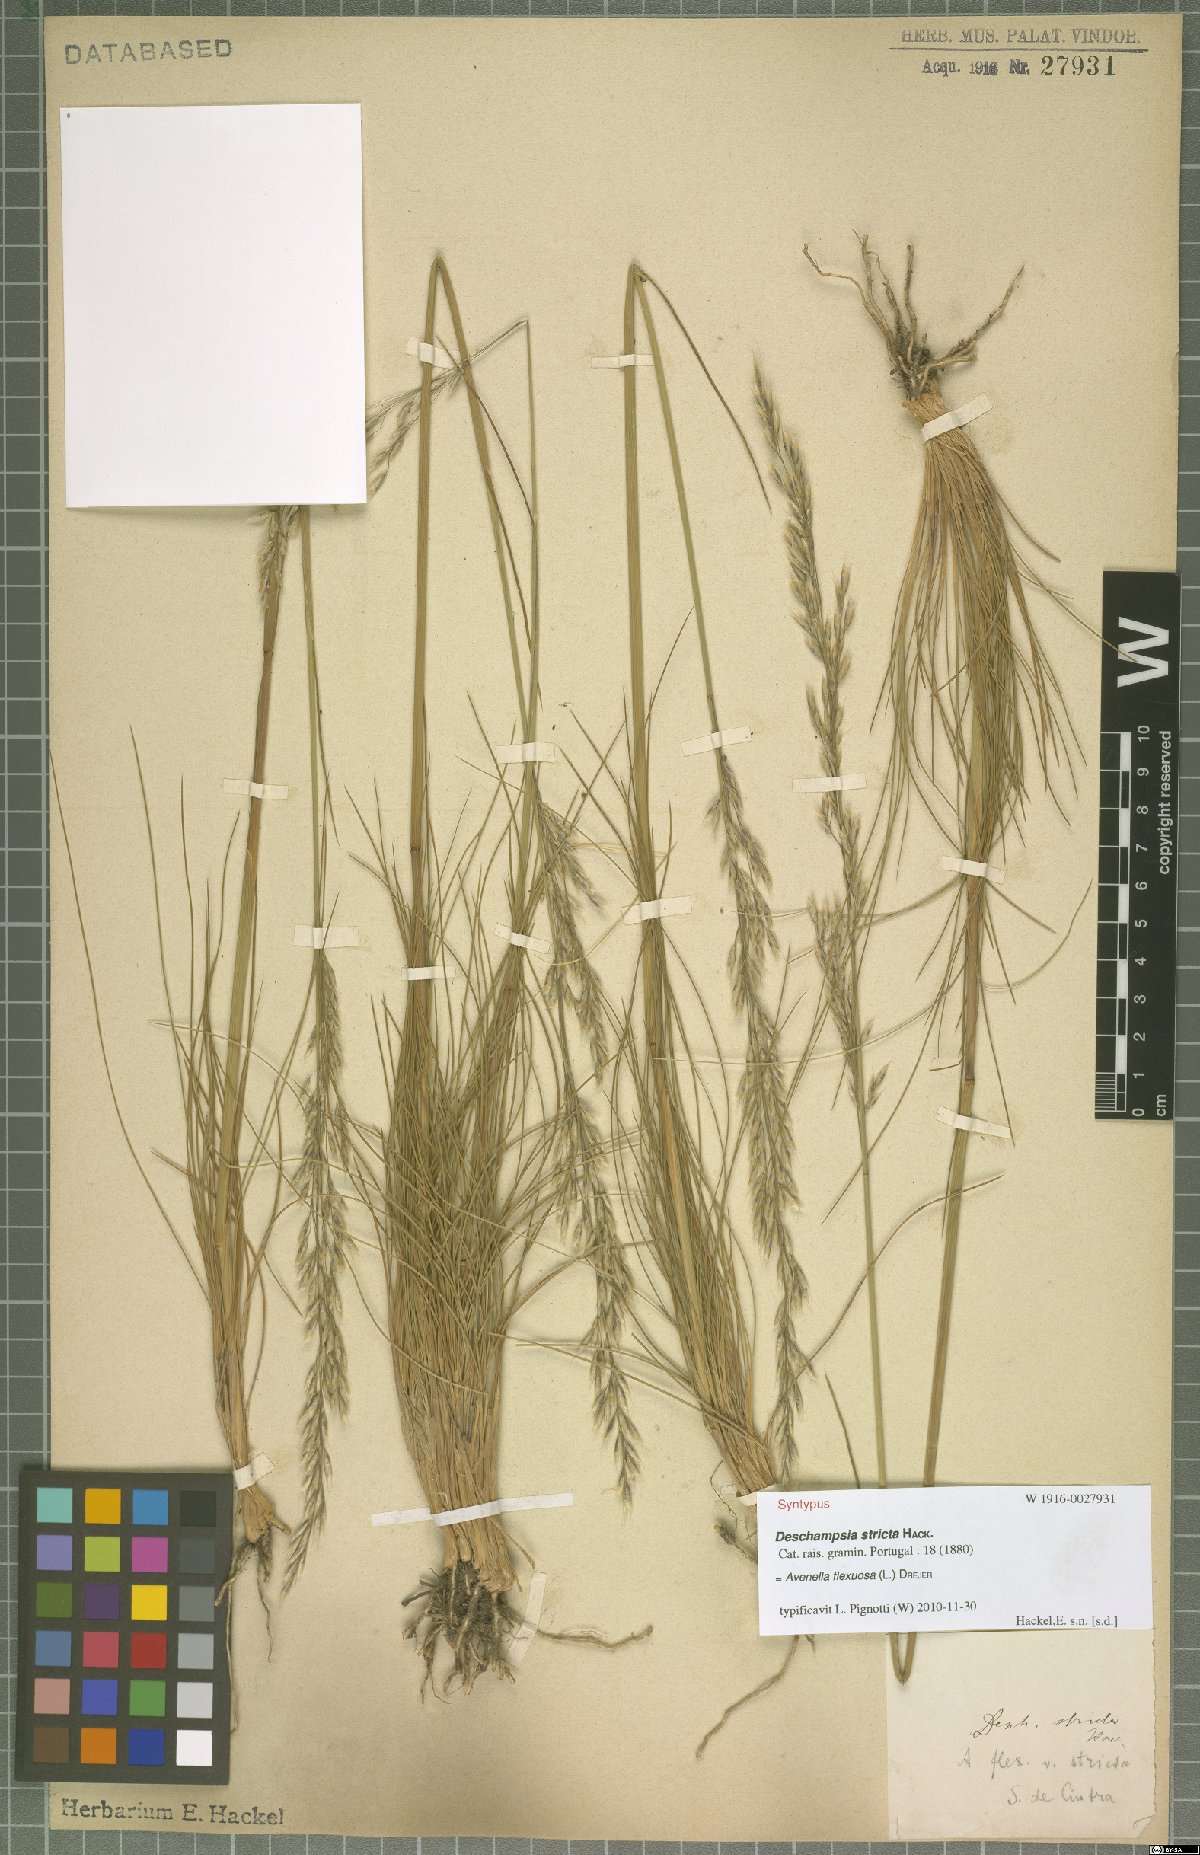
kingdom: Plantae
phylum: Tracheophyta
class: Liliopsida
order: Poales
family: Poaceae
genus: Avenella
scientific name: Avenella flexuosa
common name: Wavy hairgrass
